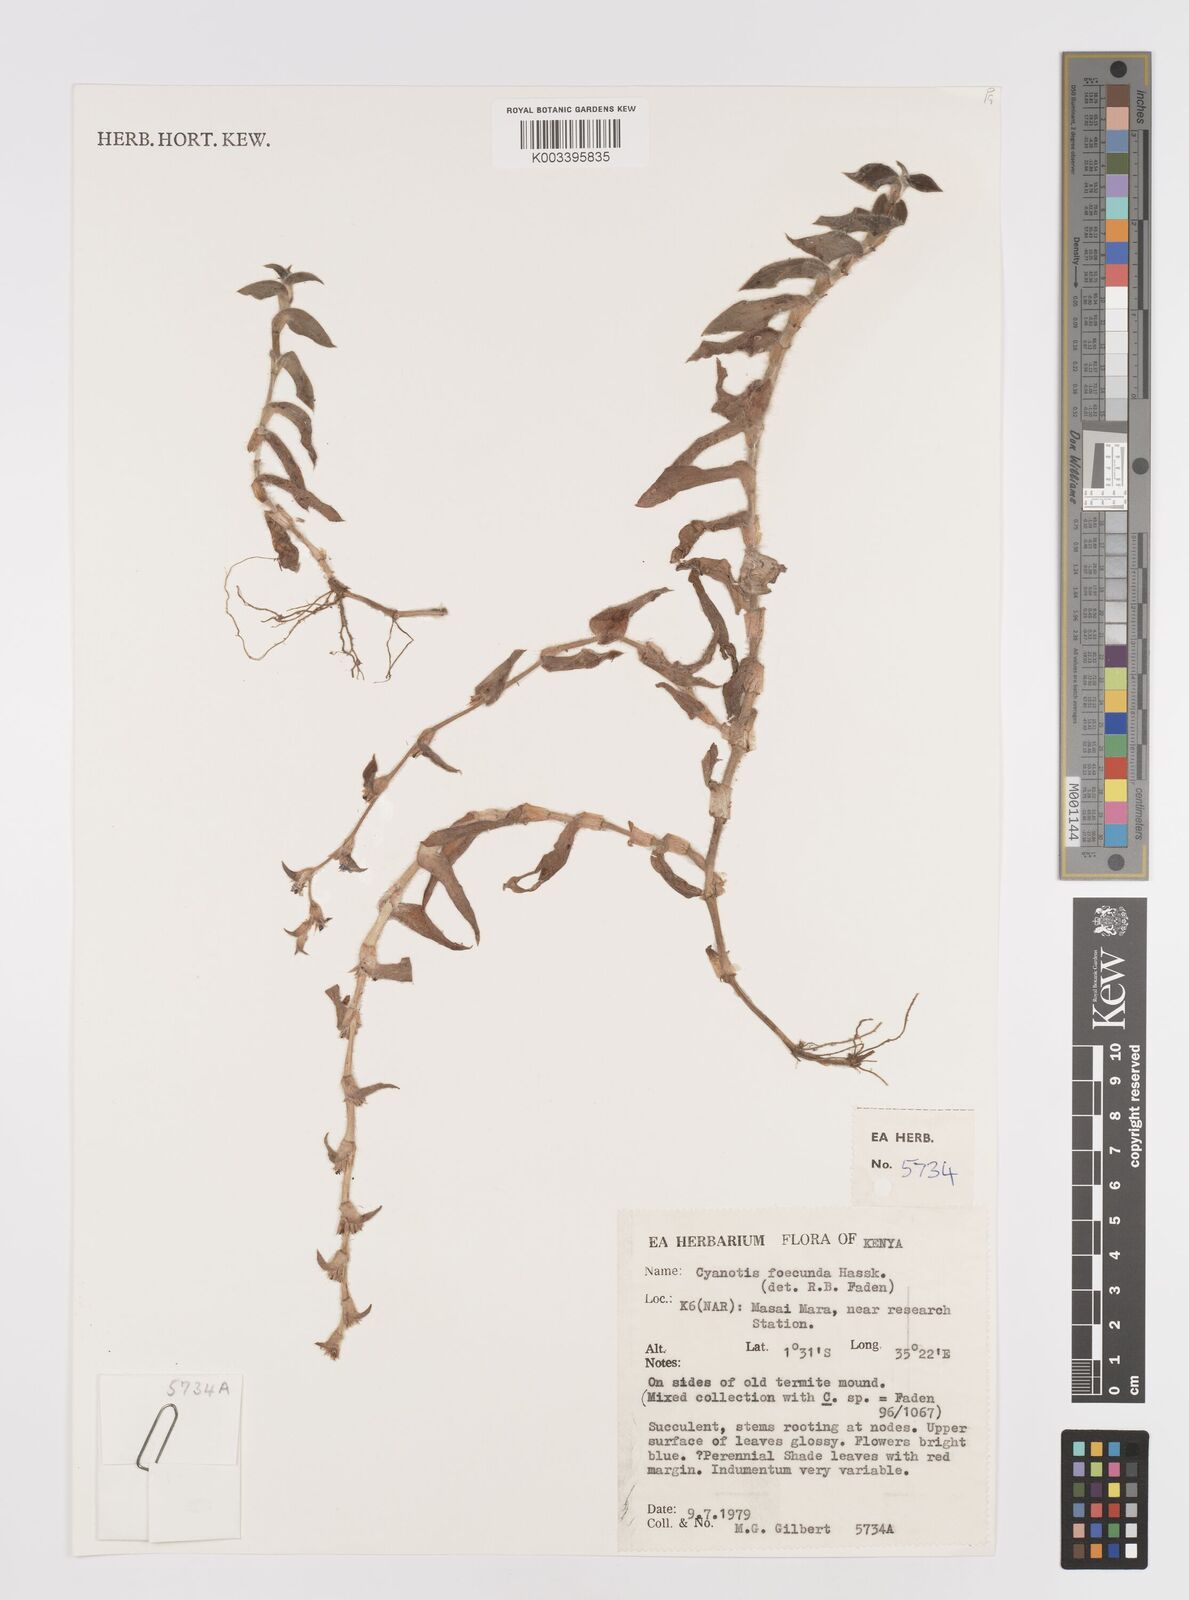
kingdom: Plantae
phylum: Tracheophyta
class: Liliopsida
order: Commelinales
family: Commelinaceae
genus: Cyanotis
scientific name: Cyanotis foecunda
